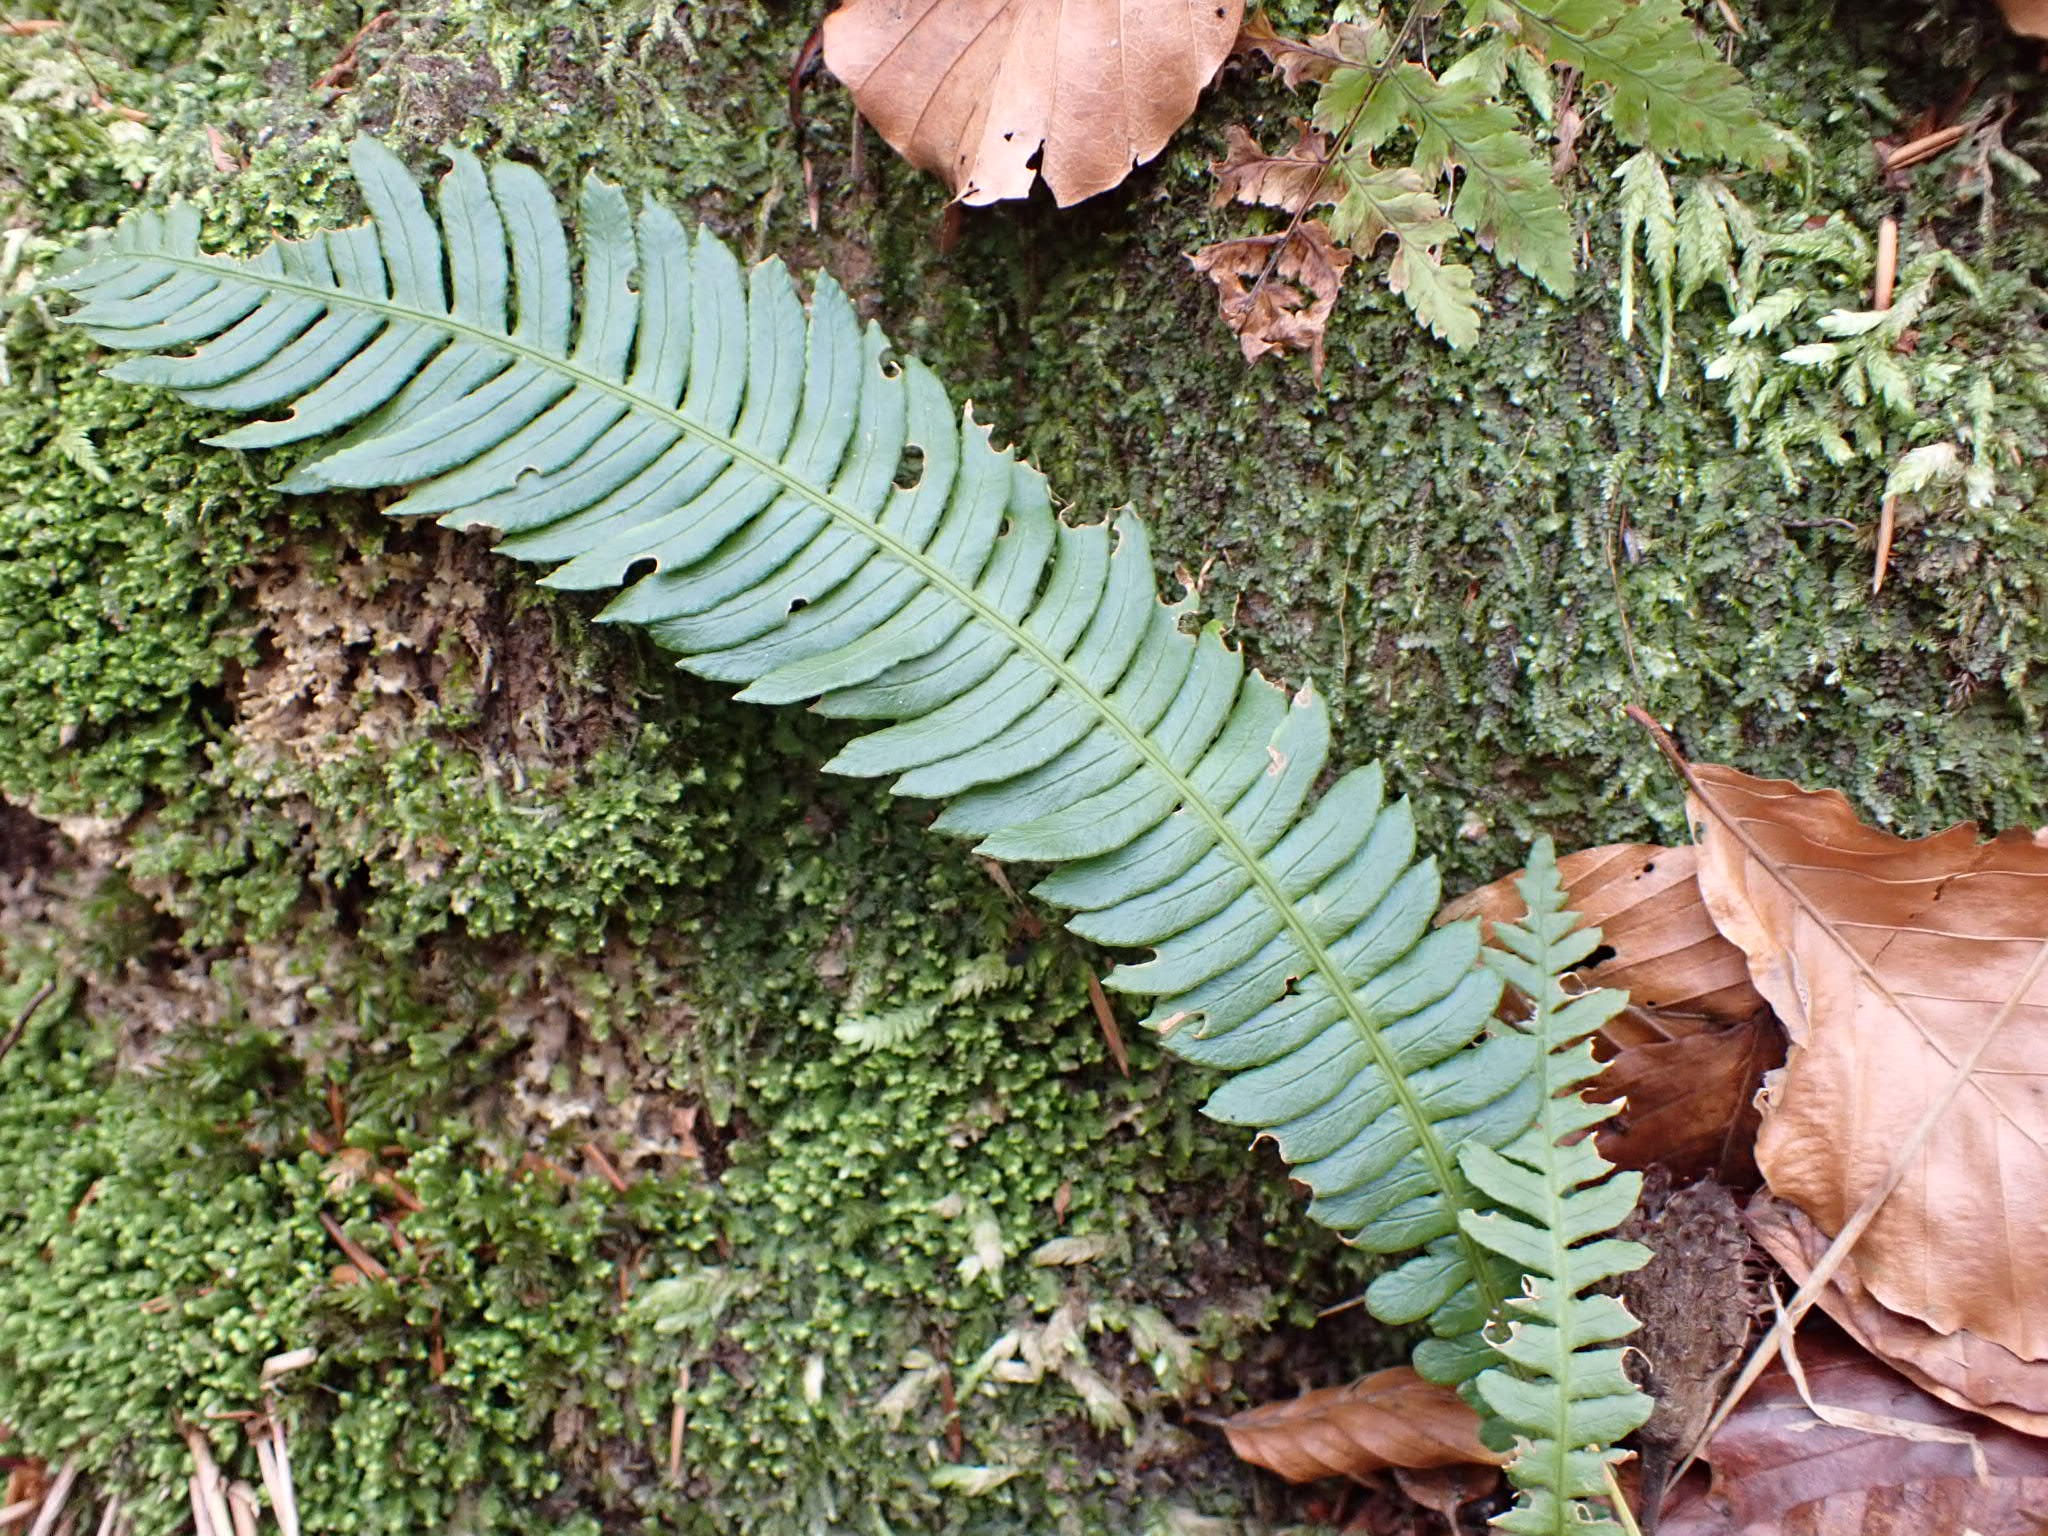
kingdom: Plantae
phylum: Tracheophyta
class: Polypodiopsida
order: Polypodiales
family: Blechnaceae
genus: Struthiopteris
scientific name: Struthiopteris spicant
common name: Kambregne
